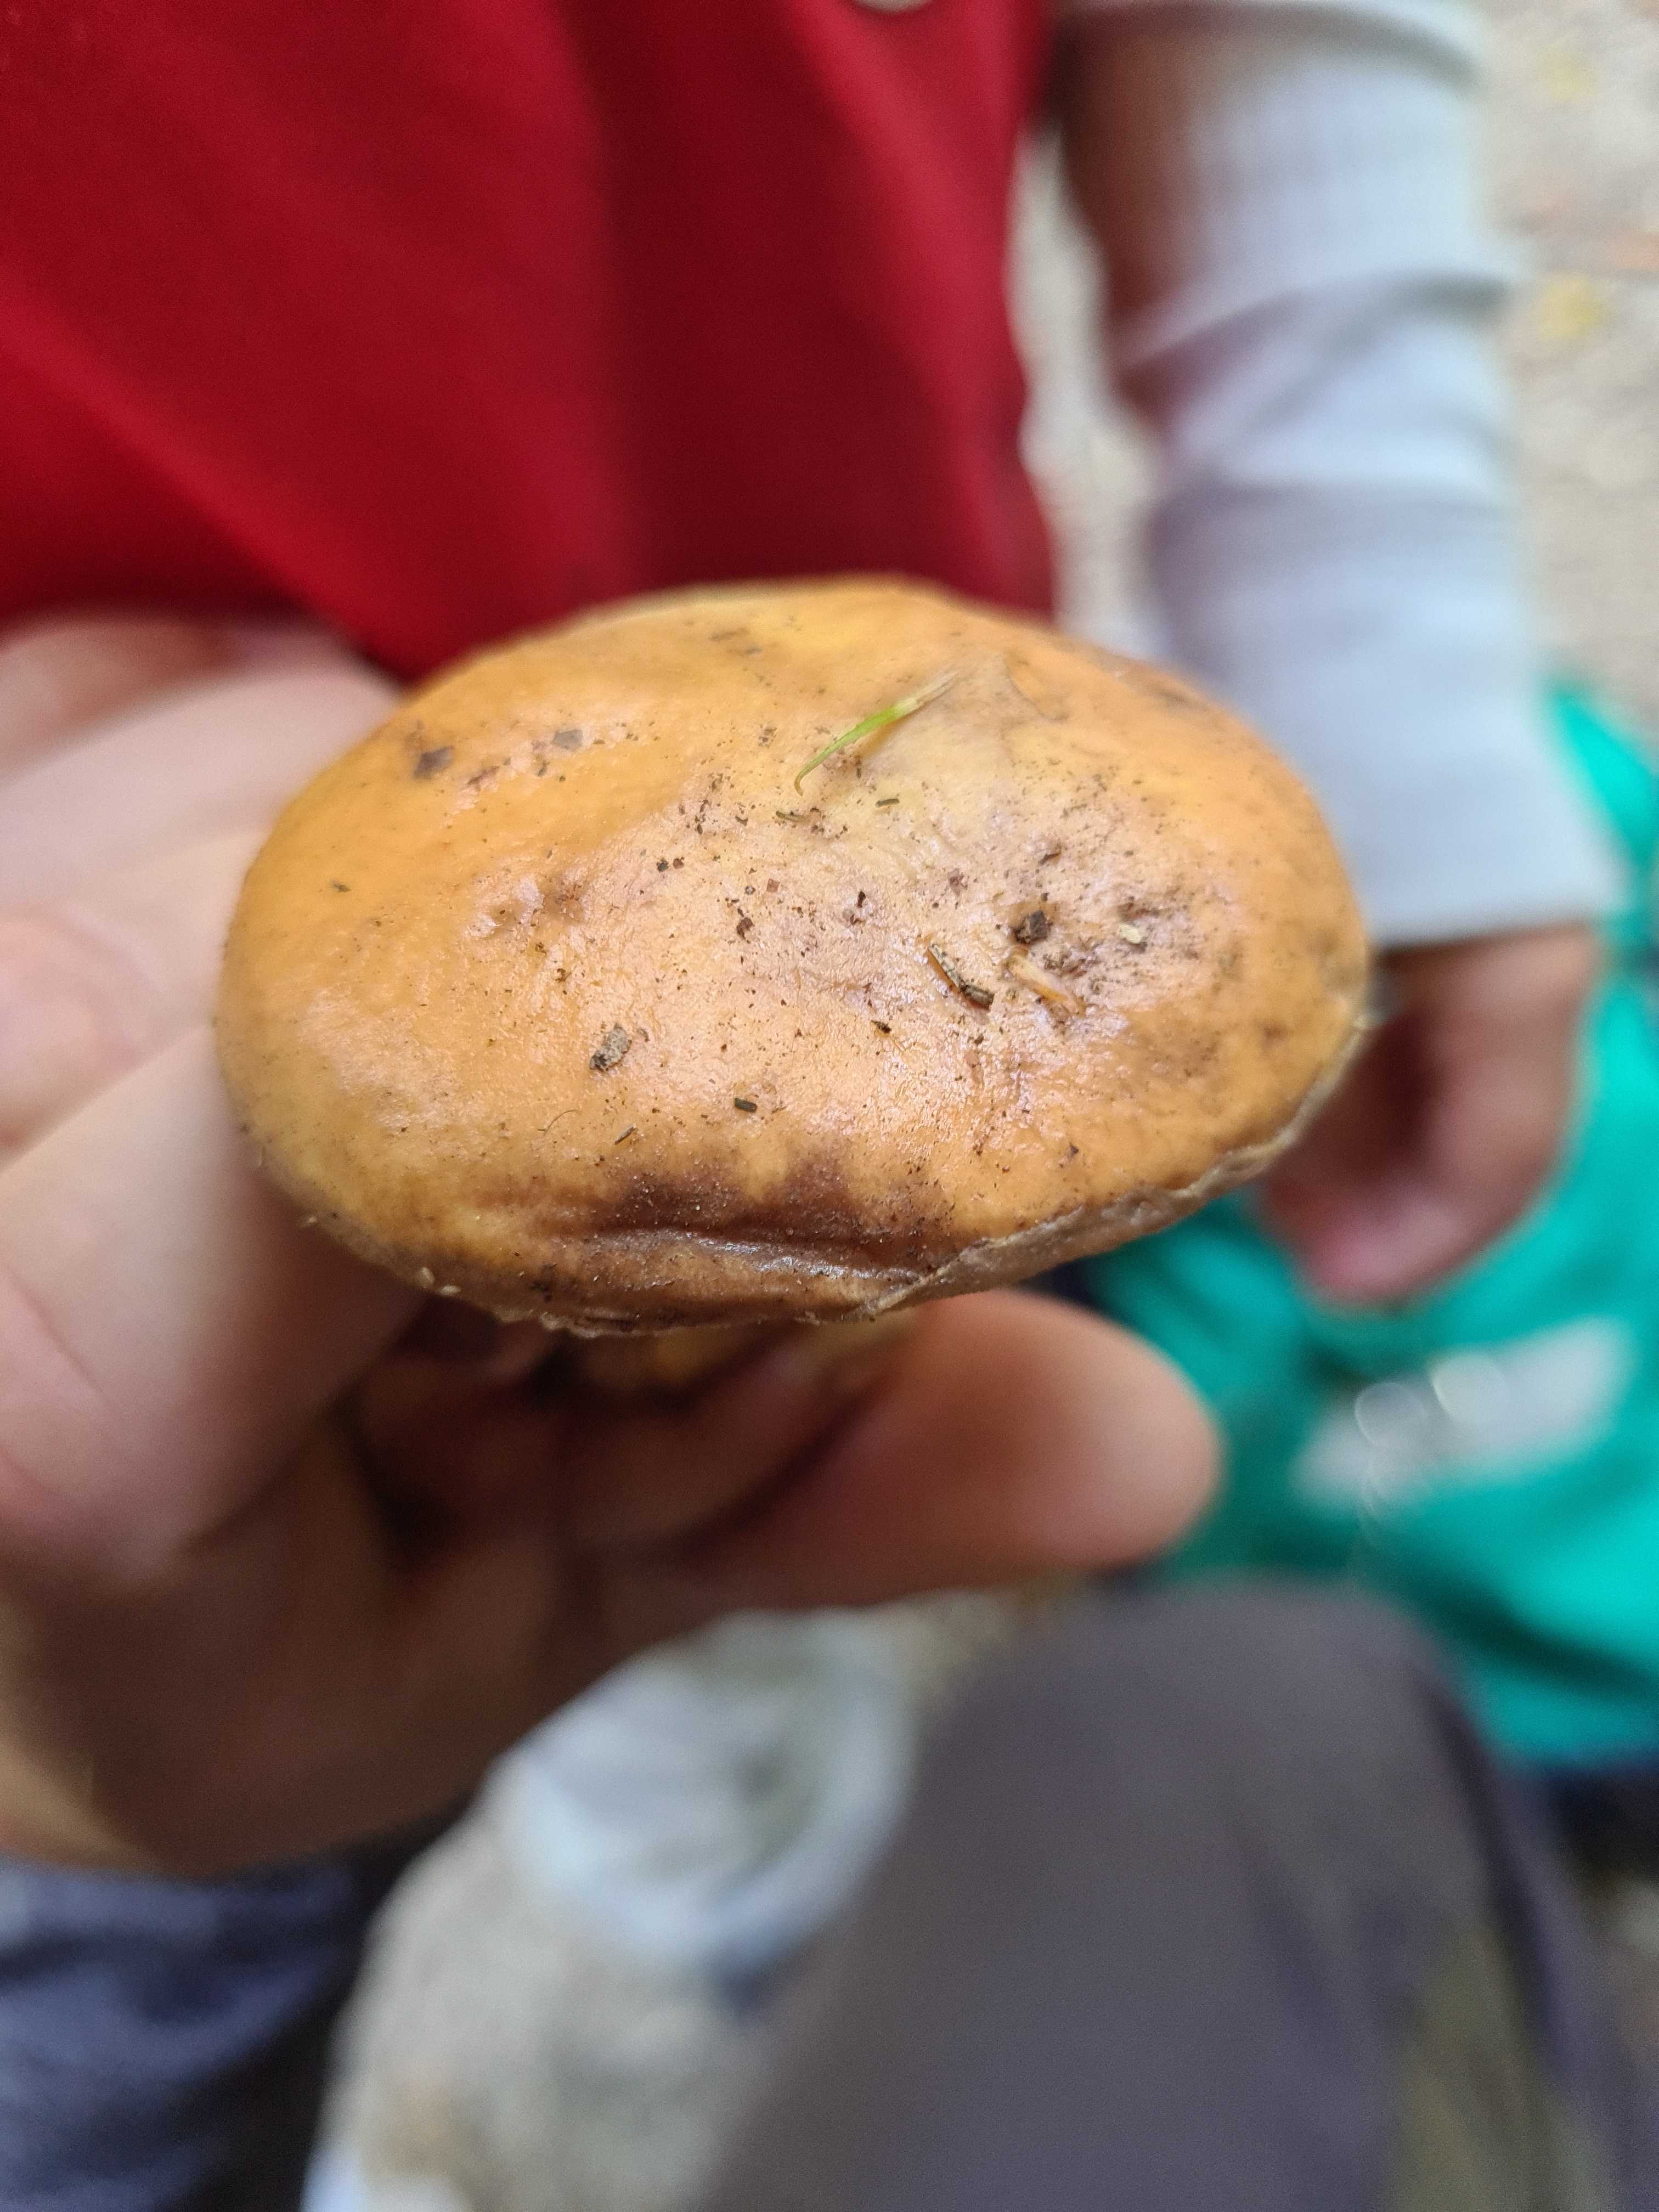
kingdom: Fungi
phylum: Basidiomycota
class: Agaricomycetes
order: Boletales
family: Suillaceae
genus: Suillus
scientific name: Suillus grevillei
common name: lærke-slimrørhat
